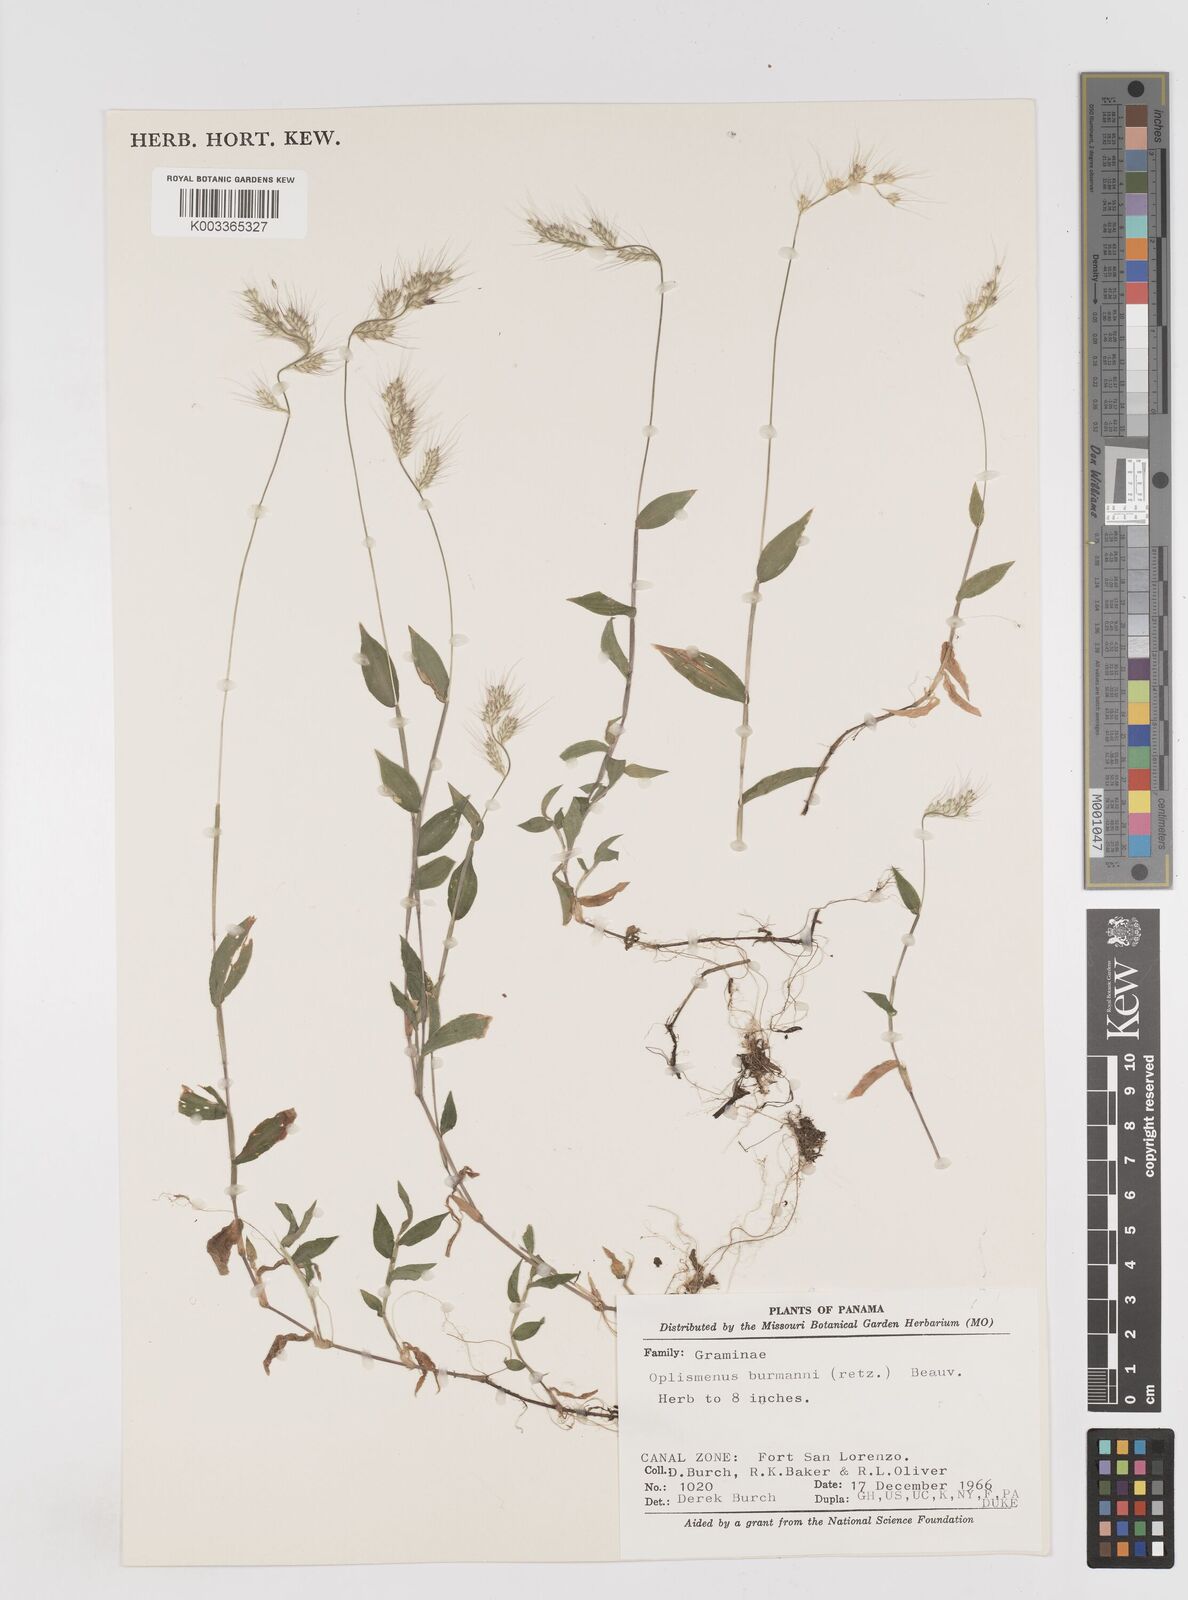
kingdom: Plantae
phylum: Tracheophyta
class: Liliopsida
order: Poales
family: Poaceae
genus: Oplismenus
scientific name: Oplismenus burmanni
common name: Burmann's basketgrass
